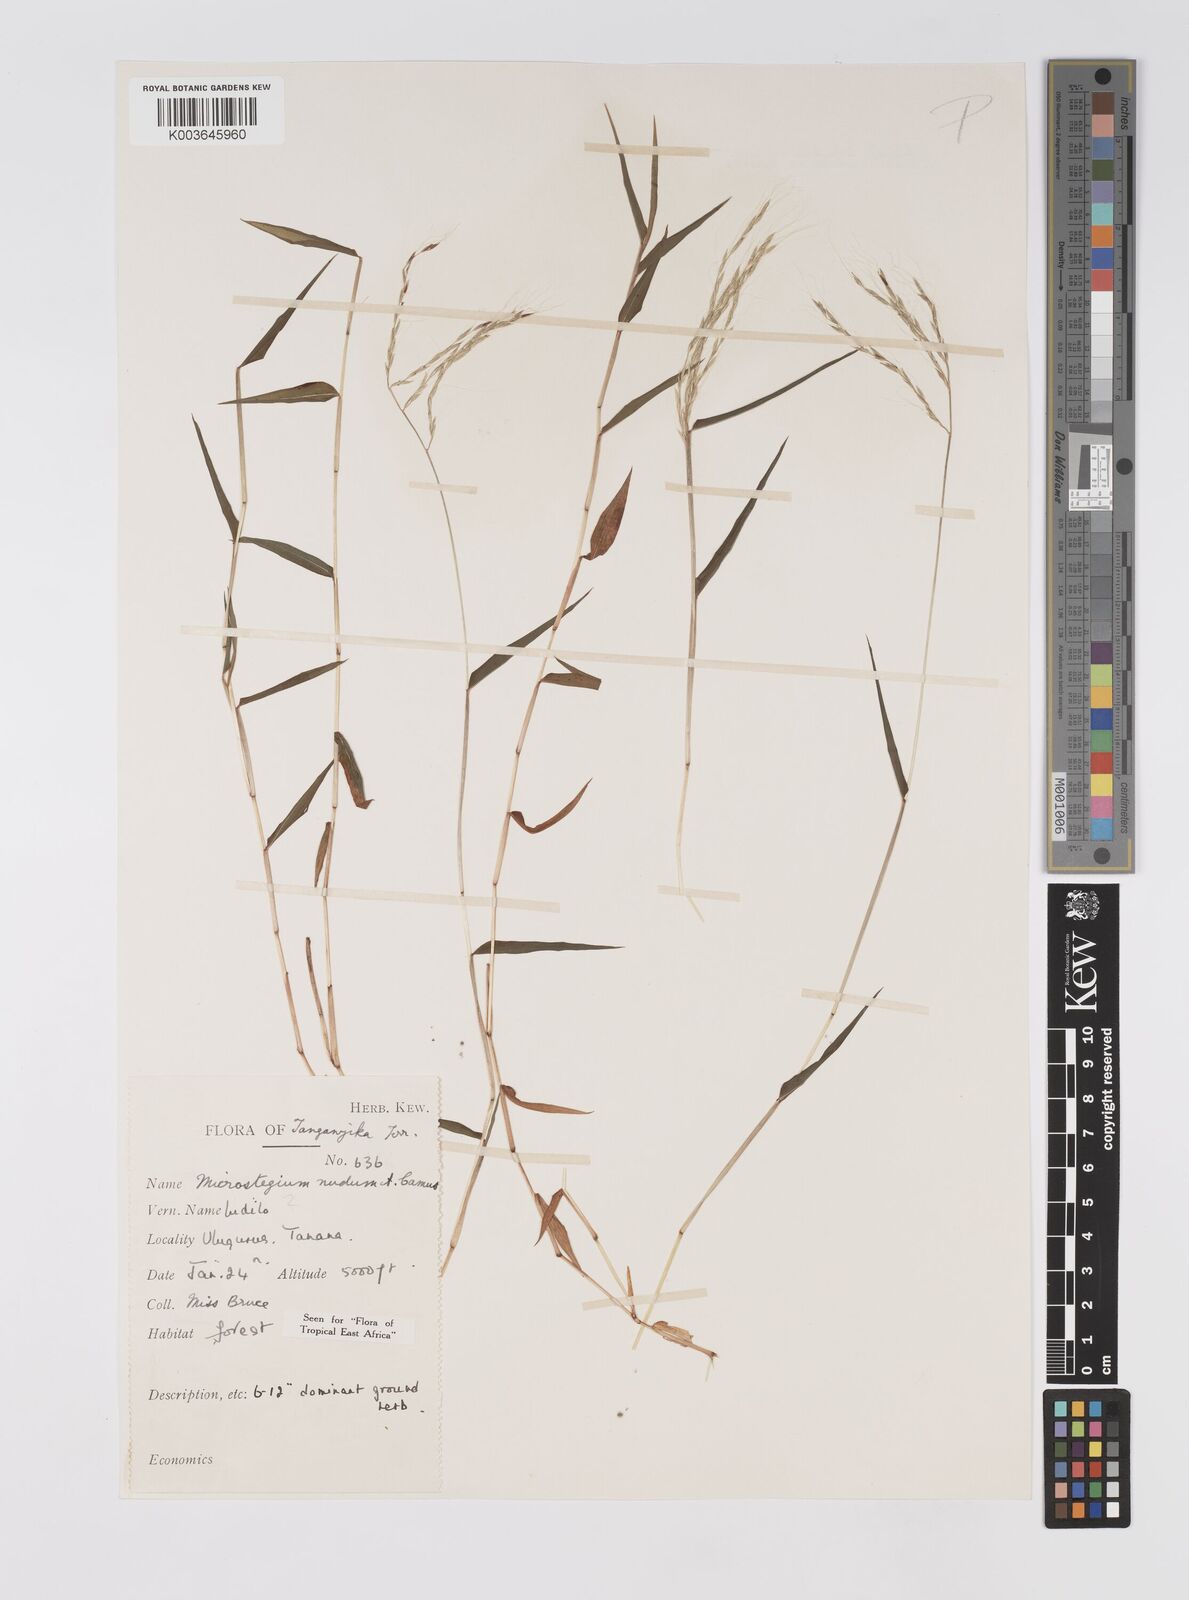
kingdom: Plantae
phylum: Tracheophyta
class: Liliopsida
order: Poales
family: Poaceae
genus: Microstegium
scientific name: Microstegium nudum
